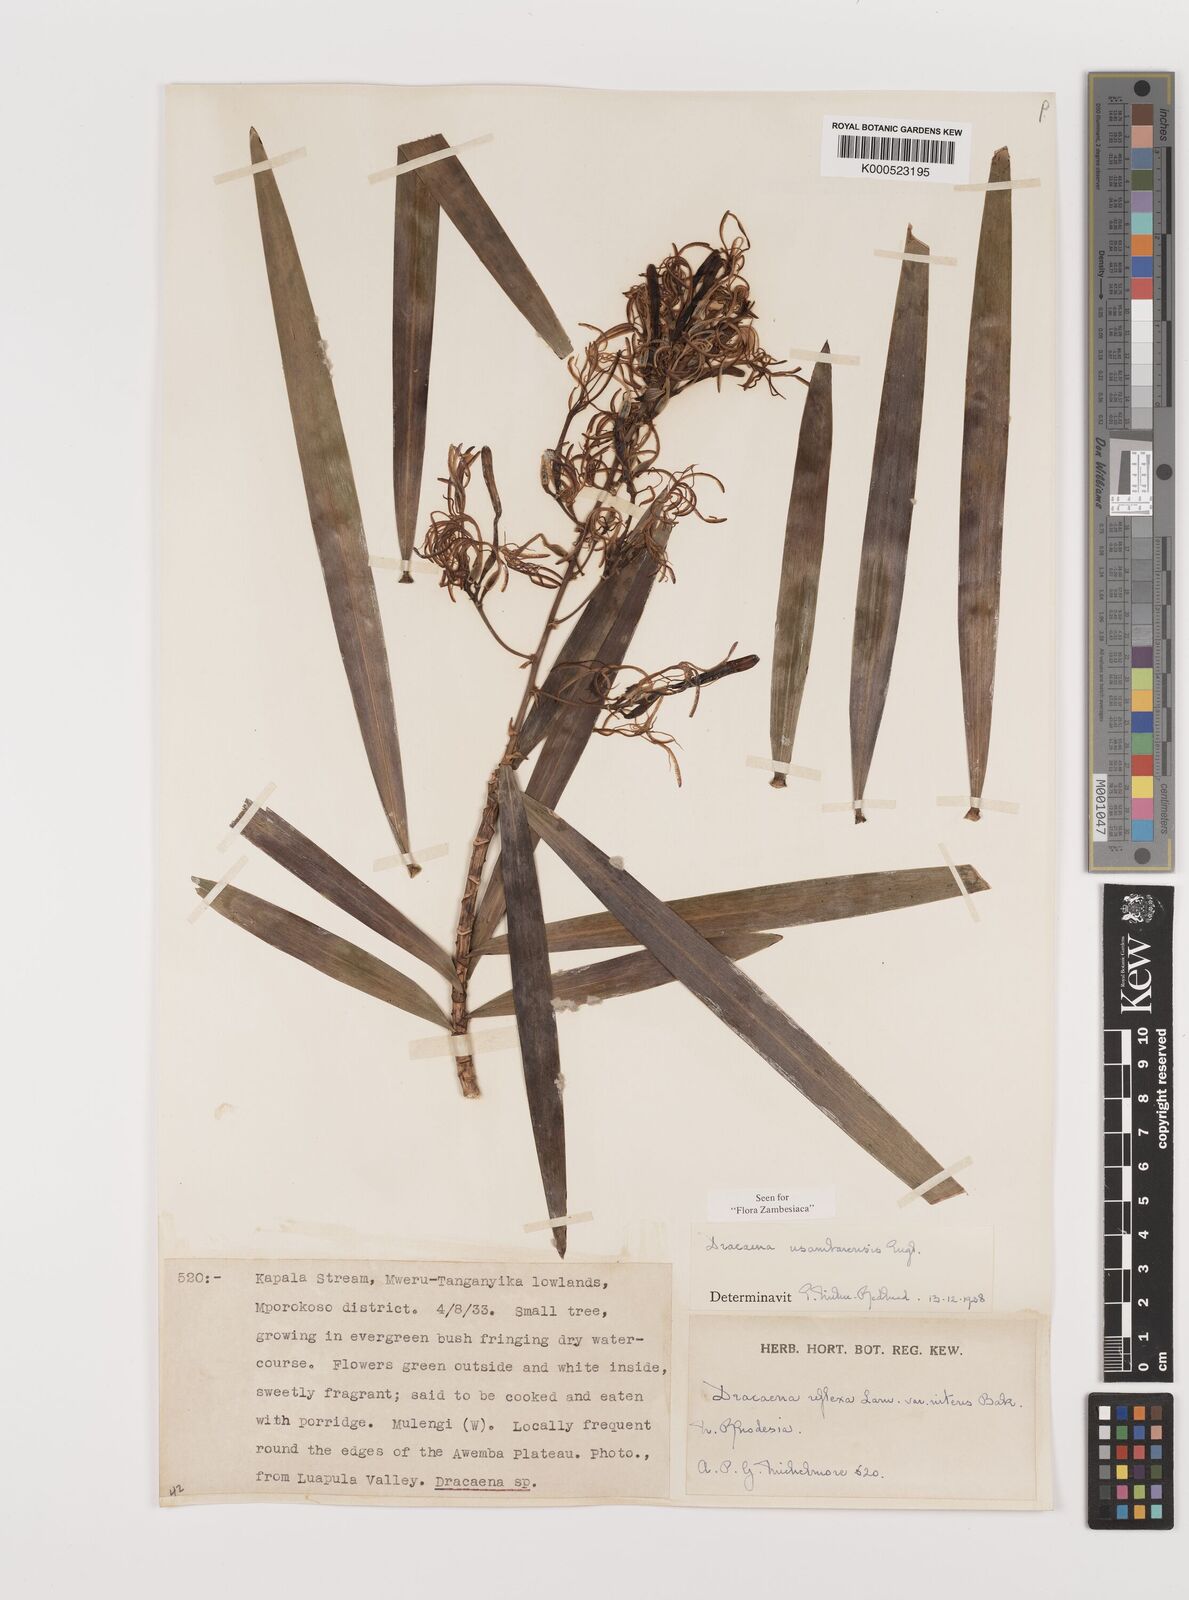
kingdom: Plantae
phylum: Tracheophyta
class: Liliopsida
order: Asparagales
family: Asparagaceae
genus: Dracaena
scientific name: Dracaena usambarensis
